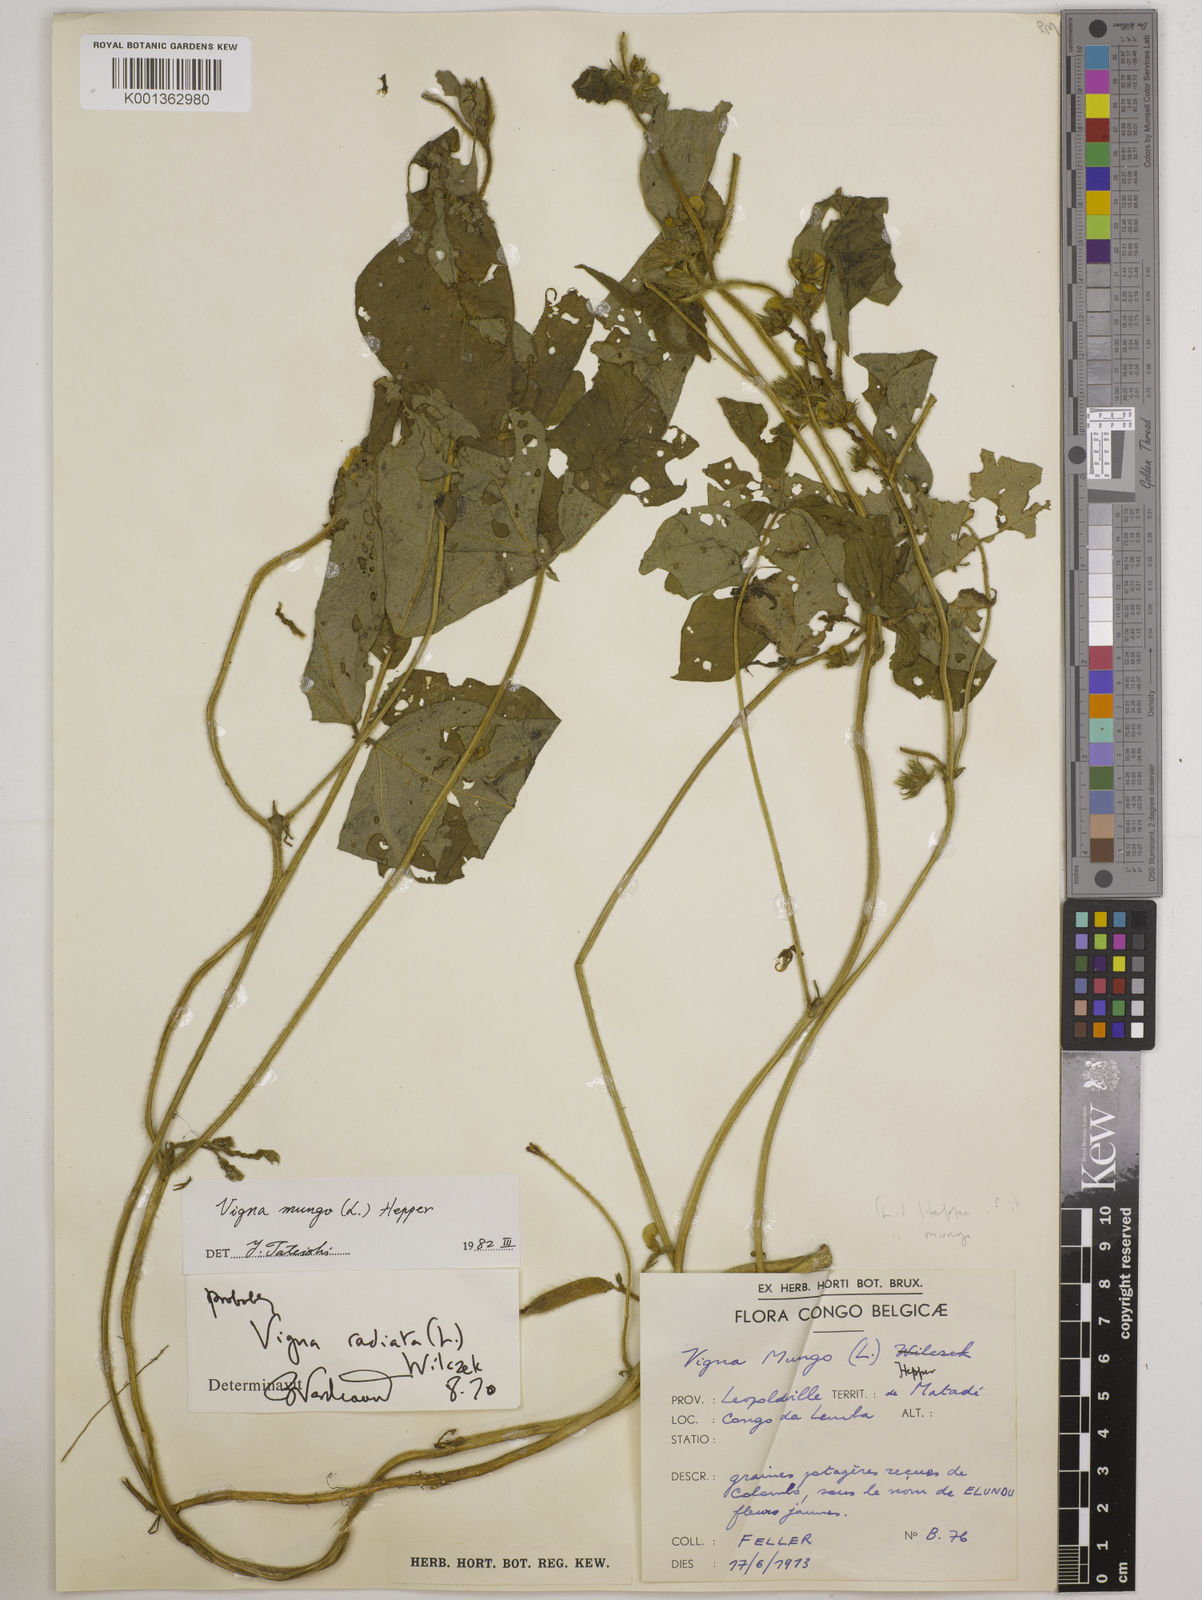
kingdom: Plantae
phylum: Tracheophyta
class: Magnoliopsida
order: Fabales
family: Fabaceae
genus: Vigna
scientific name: Vigna mungo
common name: Black gram
